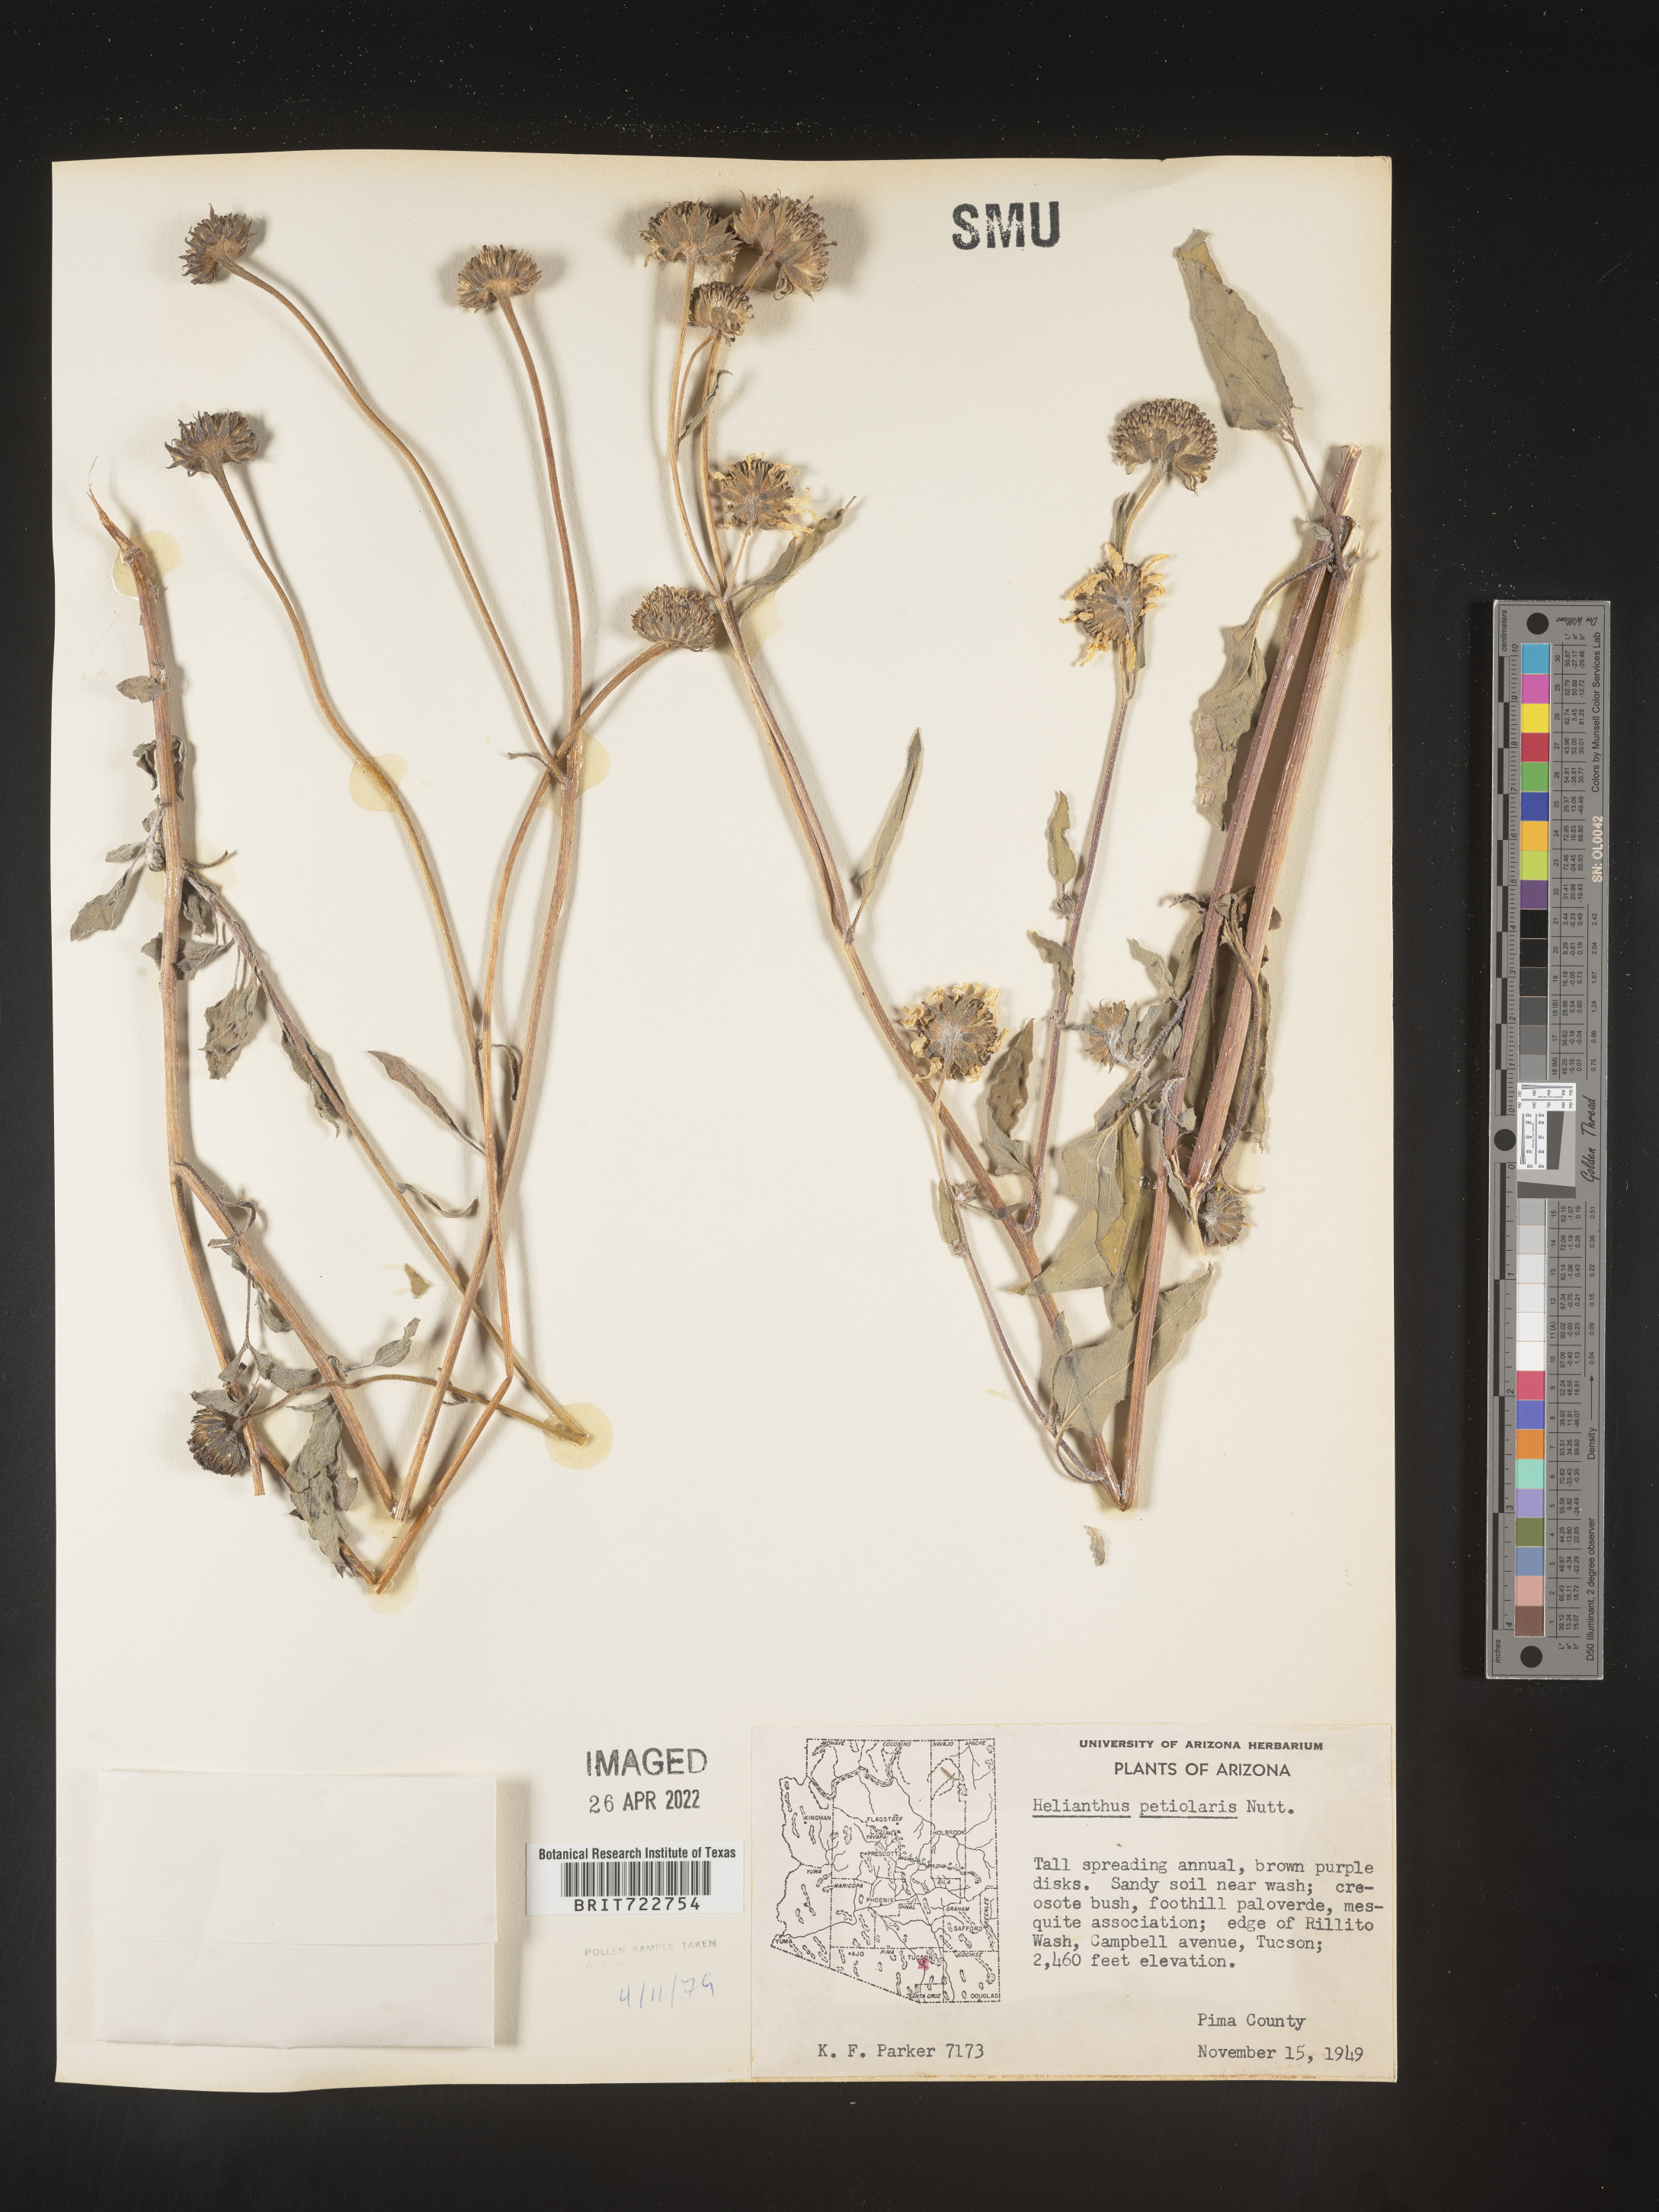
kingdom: Plantae
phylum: Tracheophyta
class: Magnoliopsida
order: Asterales
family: Asteraceae
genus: Helianthus
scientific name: Helianthus petiolaris
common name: Lesser sunflower
